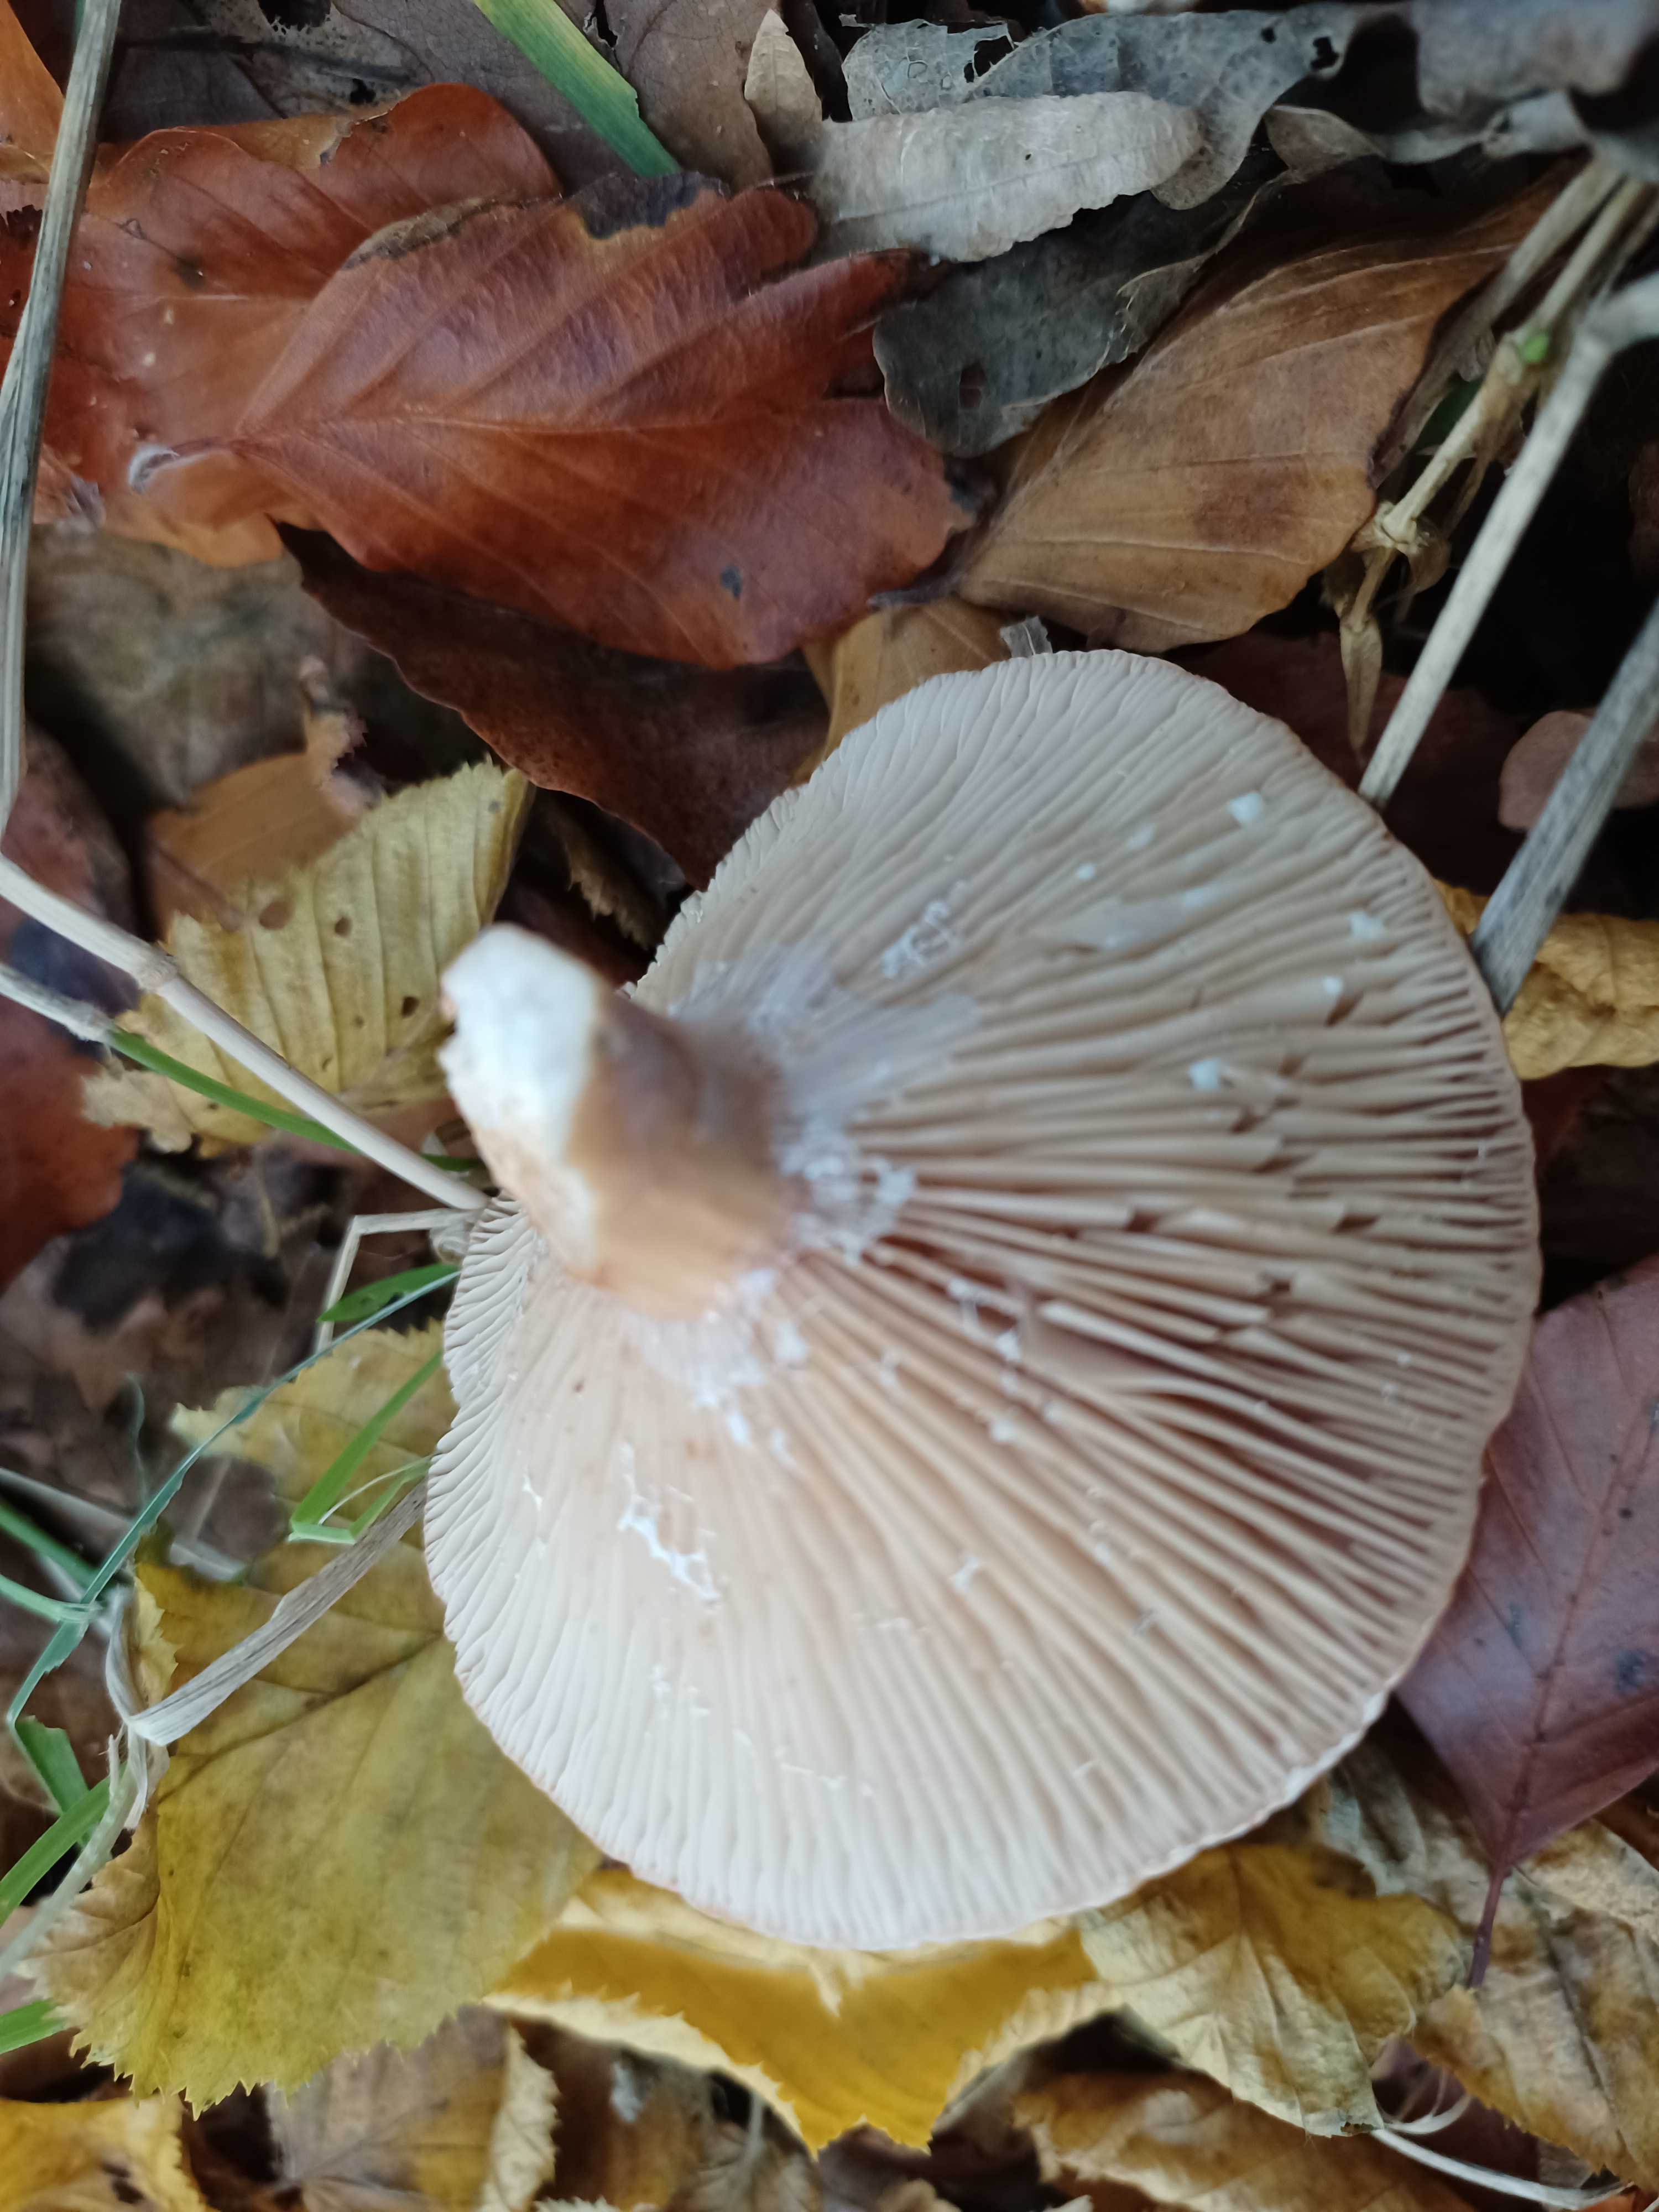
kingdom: Fungi
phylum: Basidiomycota
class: Agaricomycetes
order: Russulales
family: Russulaceae
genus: Lactarius
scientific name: Lactarius
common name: mælkehat
